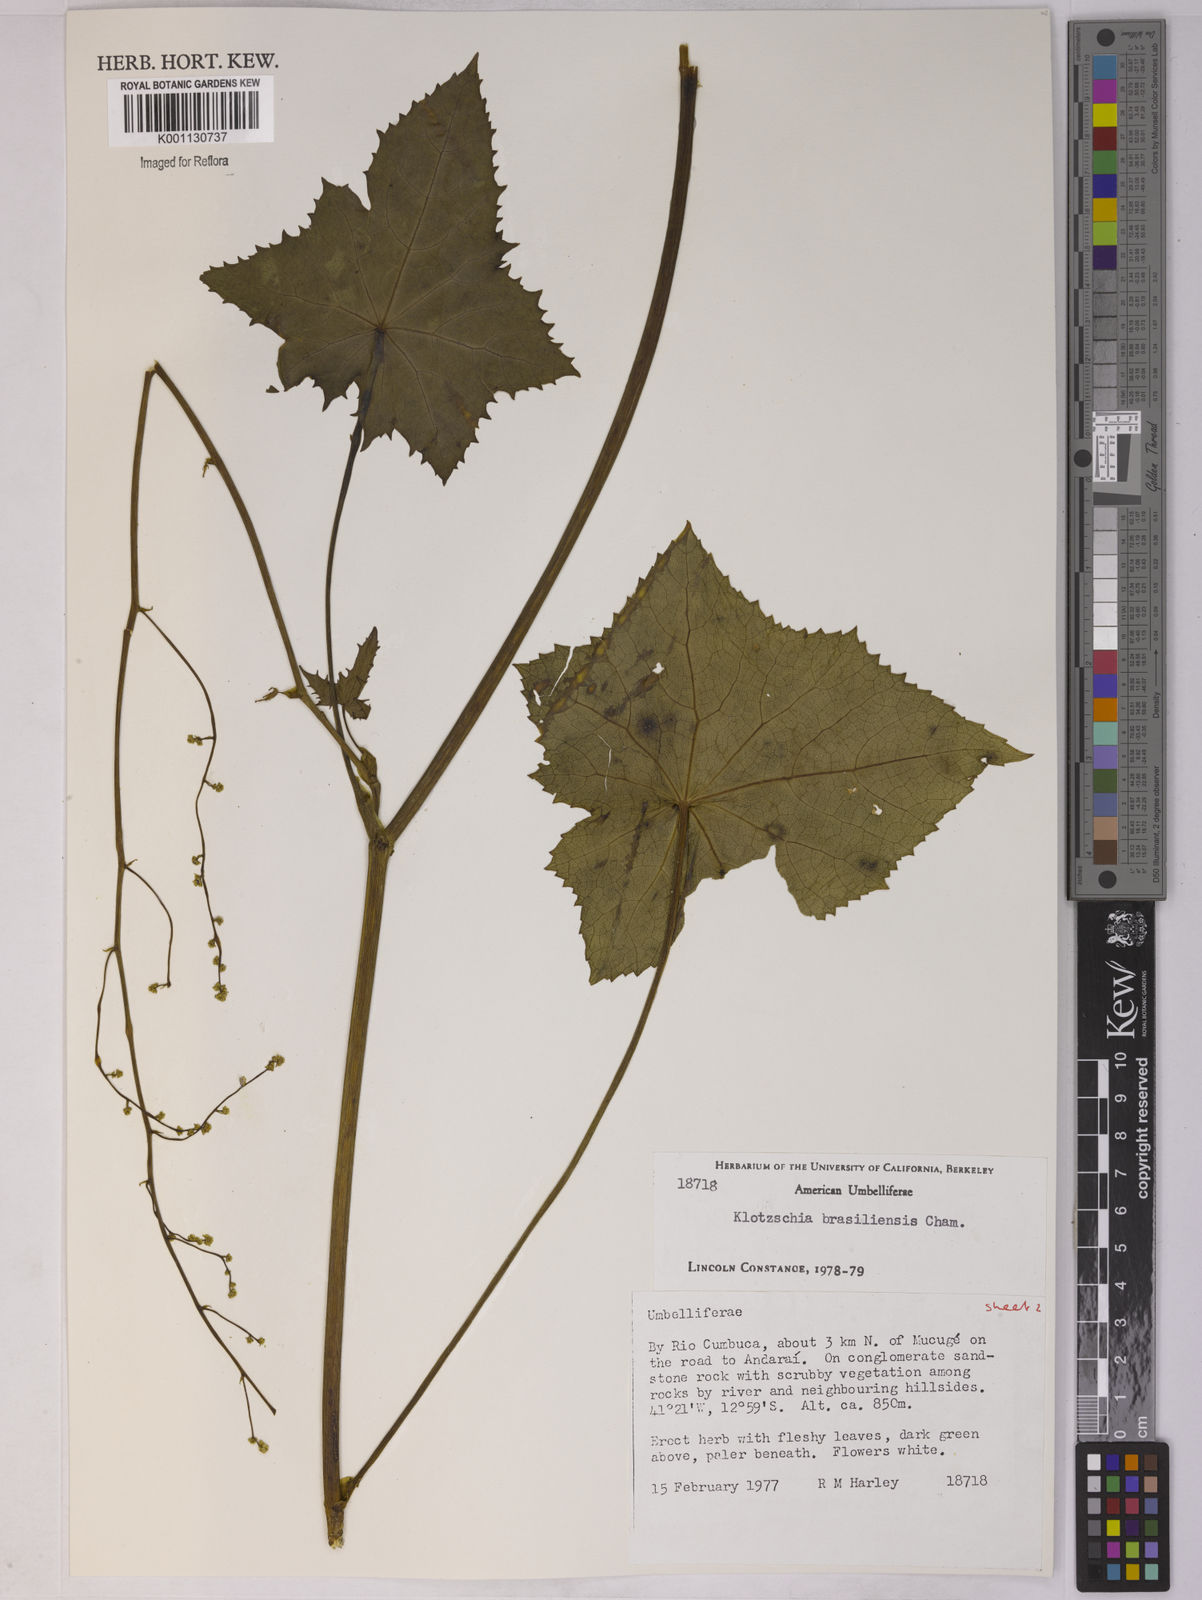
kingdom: Plantae
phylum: Tracheophyta
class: Magnoliopsida
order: Apiales
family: Apiaceae
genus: Klotzschia
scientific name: Klotzschia brasiliensis
